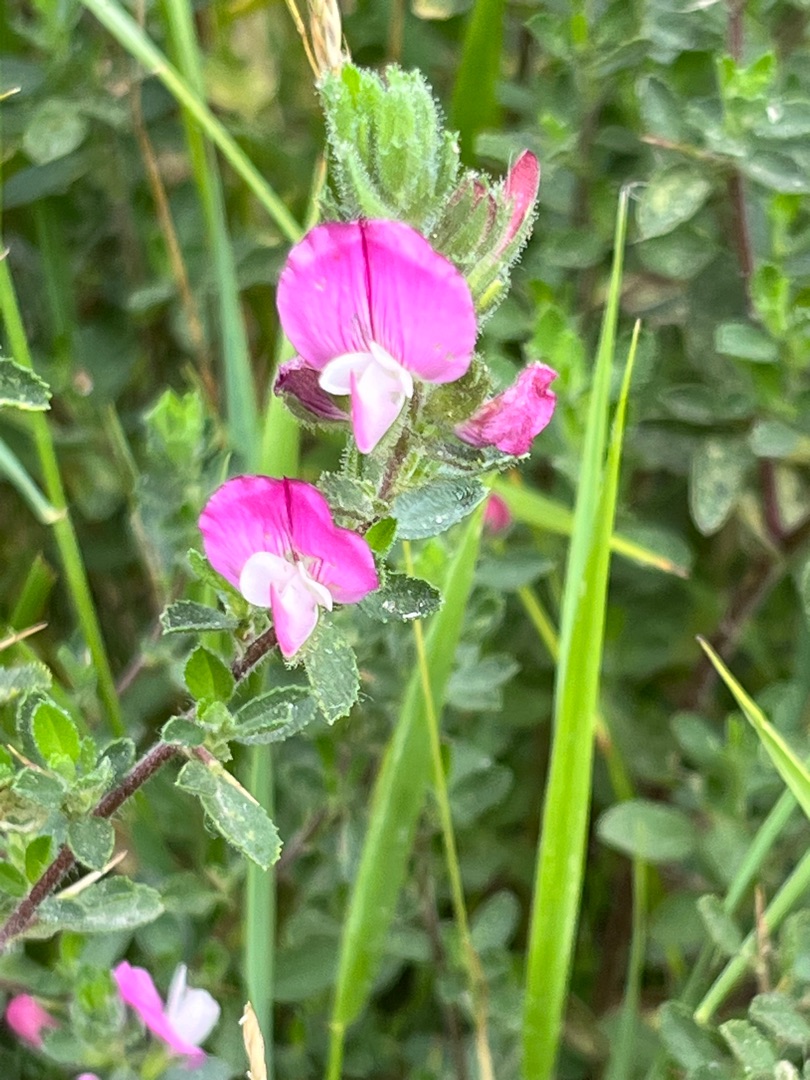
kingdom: Plantae
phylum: Tracheophyta
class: Magnoliopsida
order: Fabales
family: Fabaceae
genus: Ononis
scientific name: Ononis spinosa
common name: Mark-krageklo
